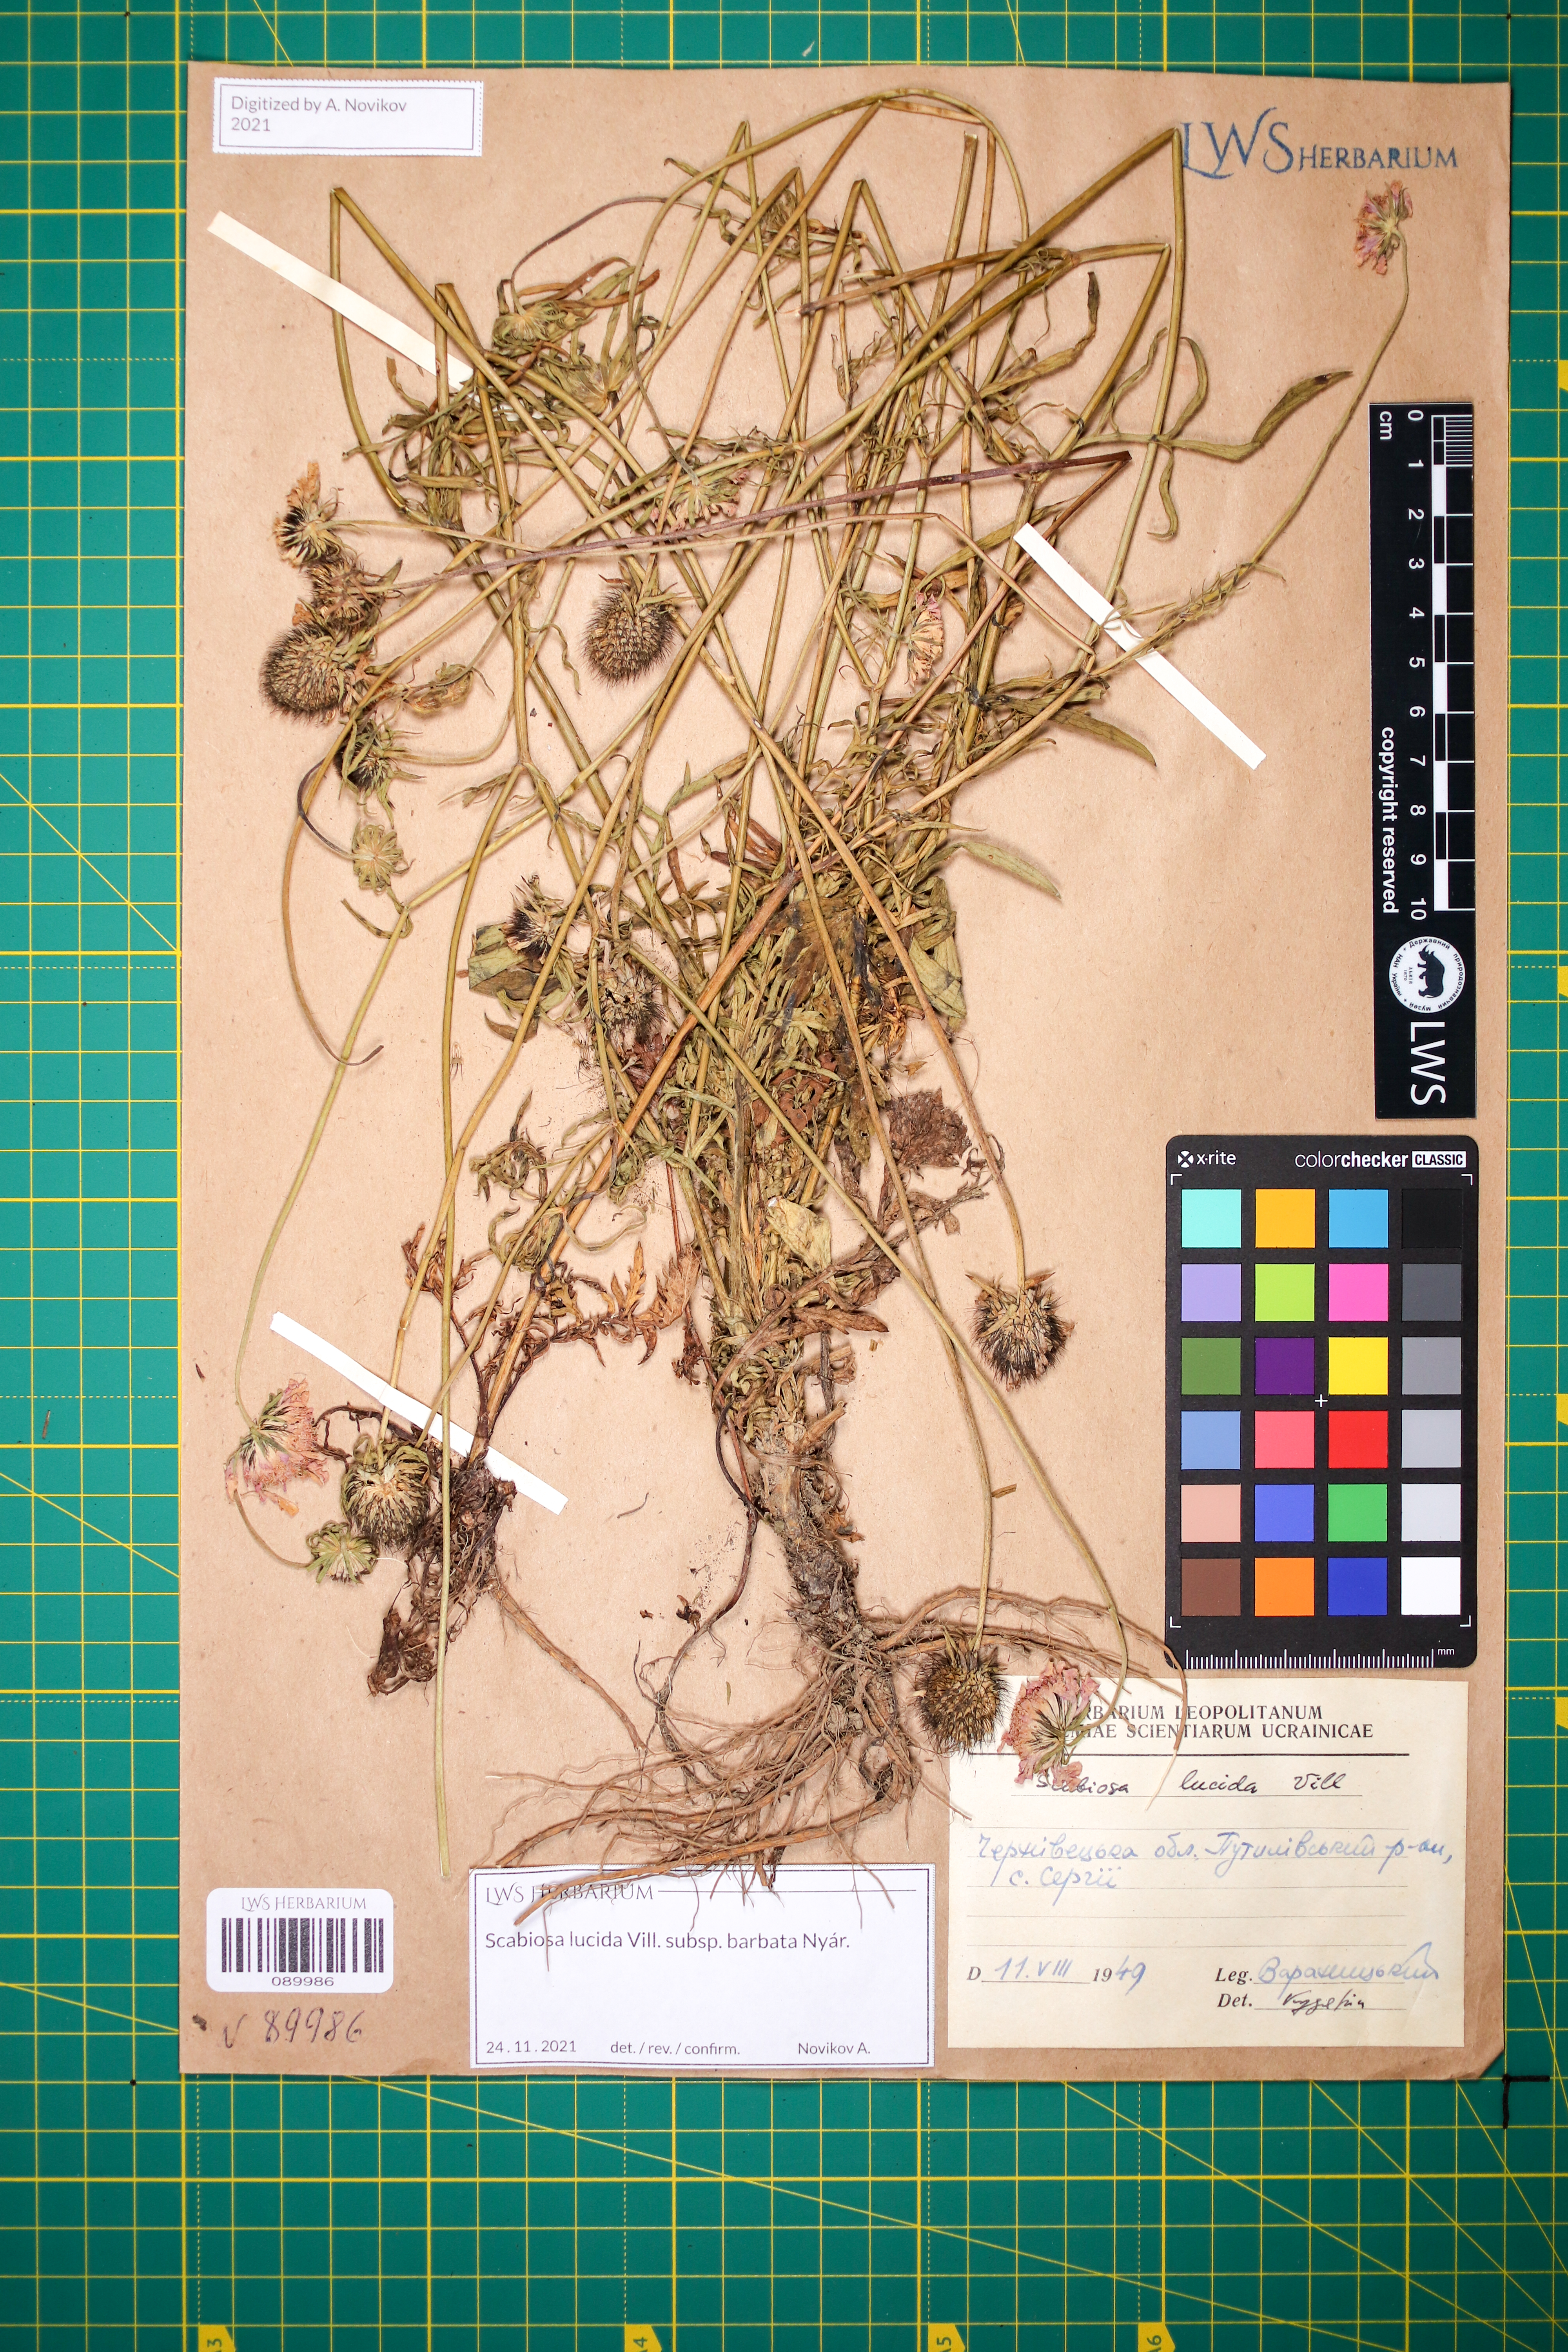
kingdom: Plantae
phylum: Tracheophyta
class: Magnoliopsida
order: Dipsacales
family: Caprifoliaceae
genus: Scabiosa
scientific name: Scabiosa lucida
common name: Shining scabious
